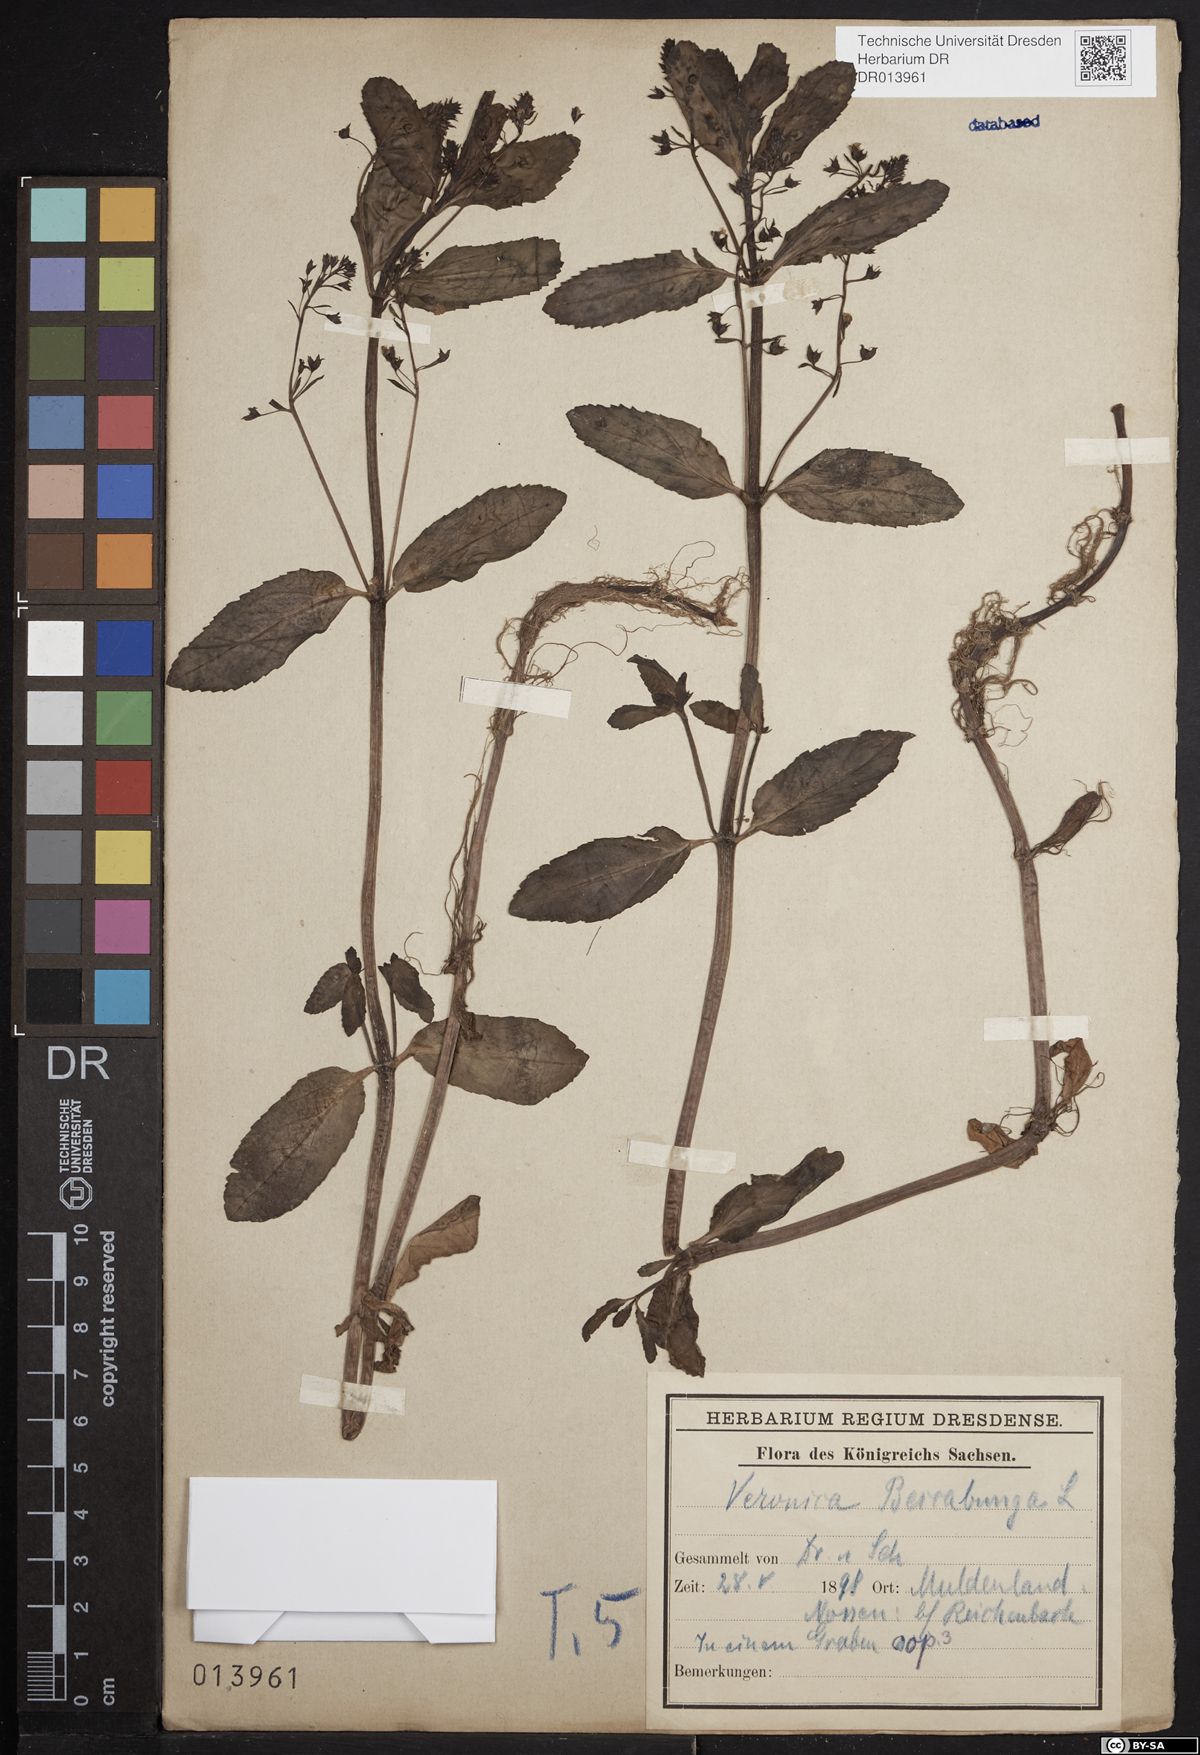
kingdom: Plantae
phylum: Tracheophyta
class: Magnoliopsida
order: Lamiales
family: Plantaginaceae
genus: Veronica
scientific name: Veronica beccabunga
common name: Brooklime
